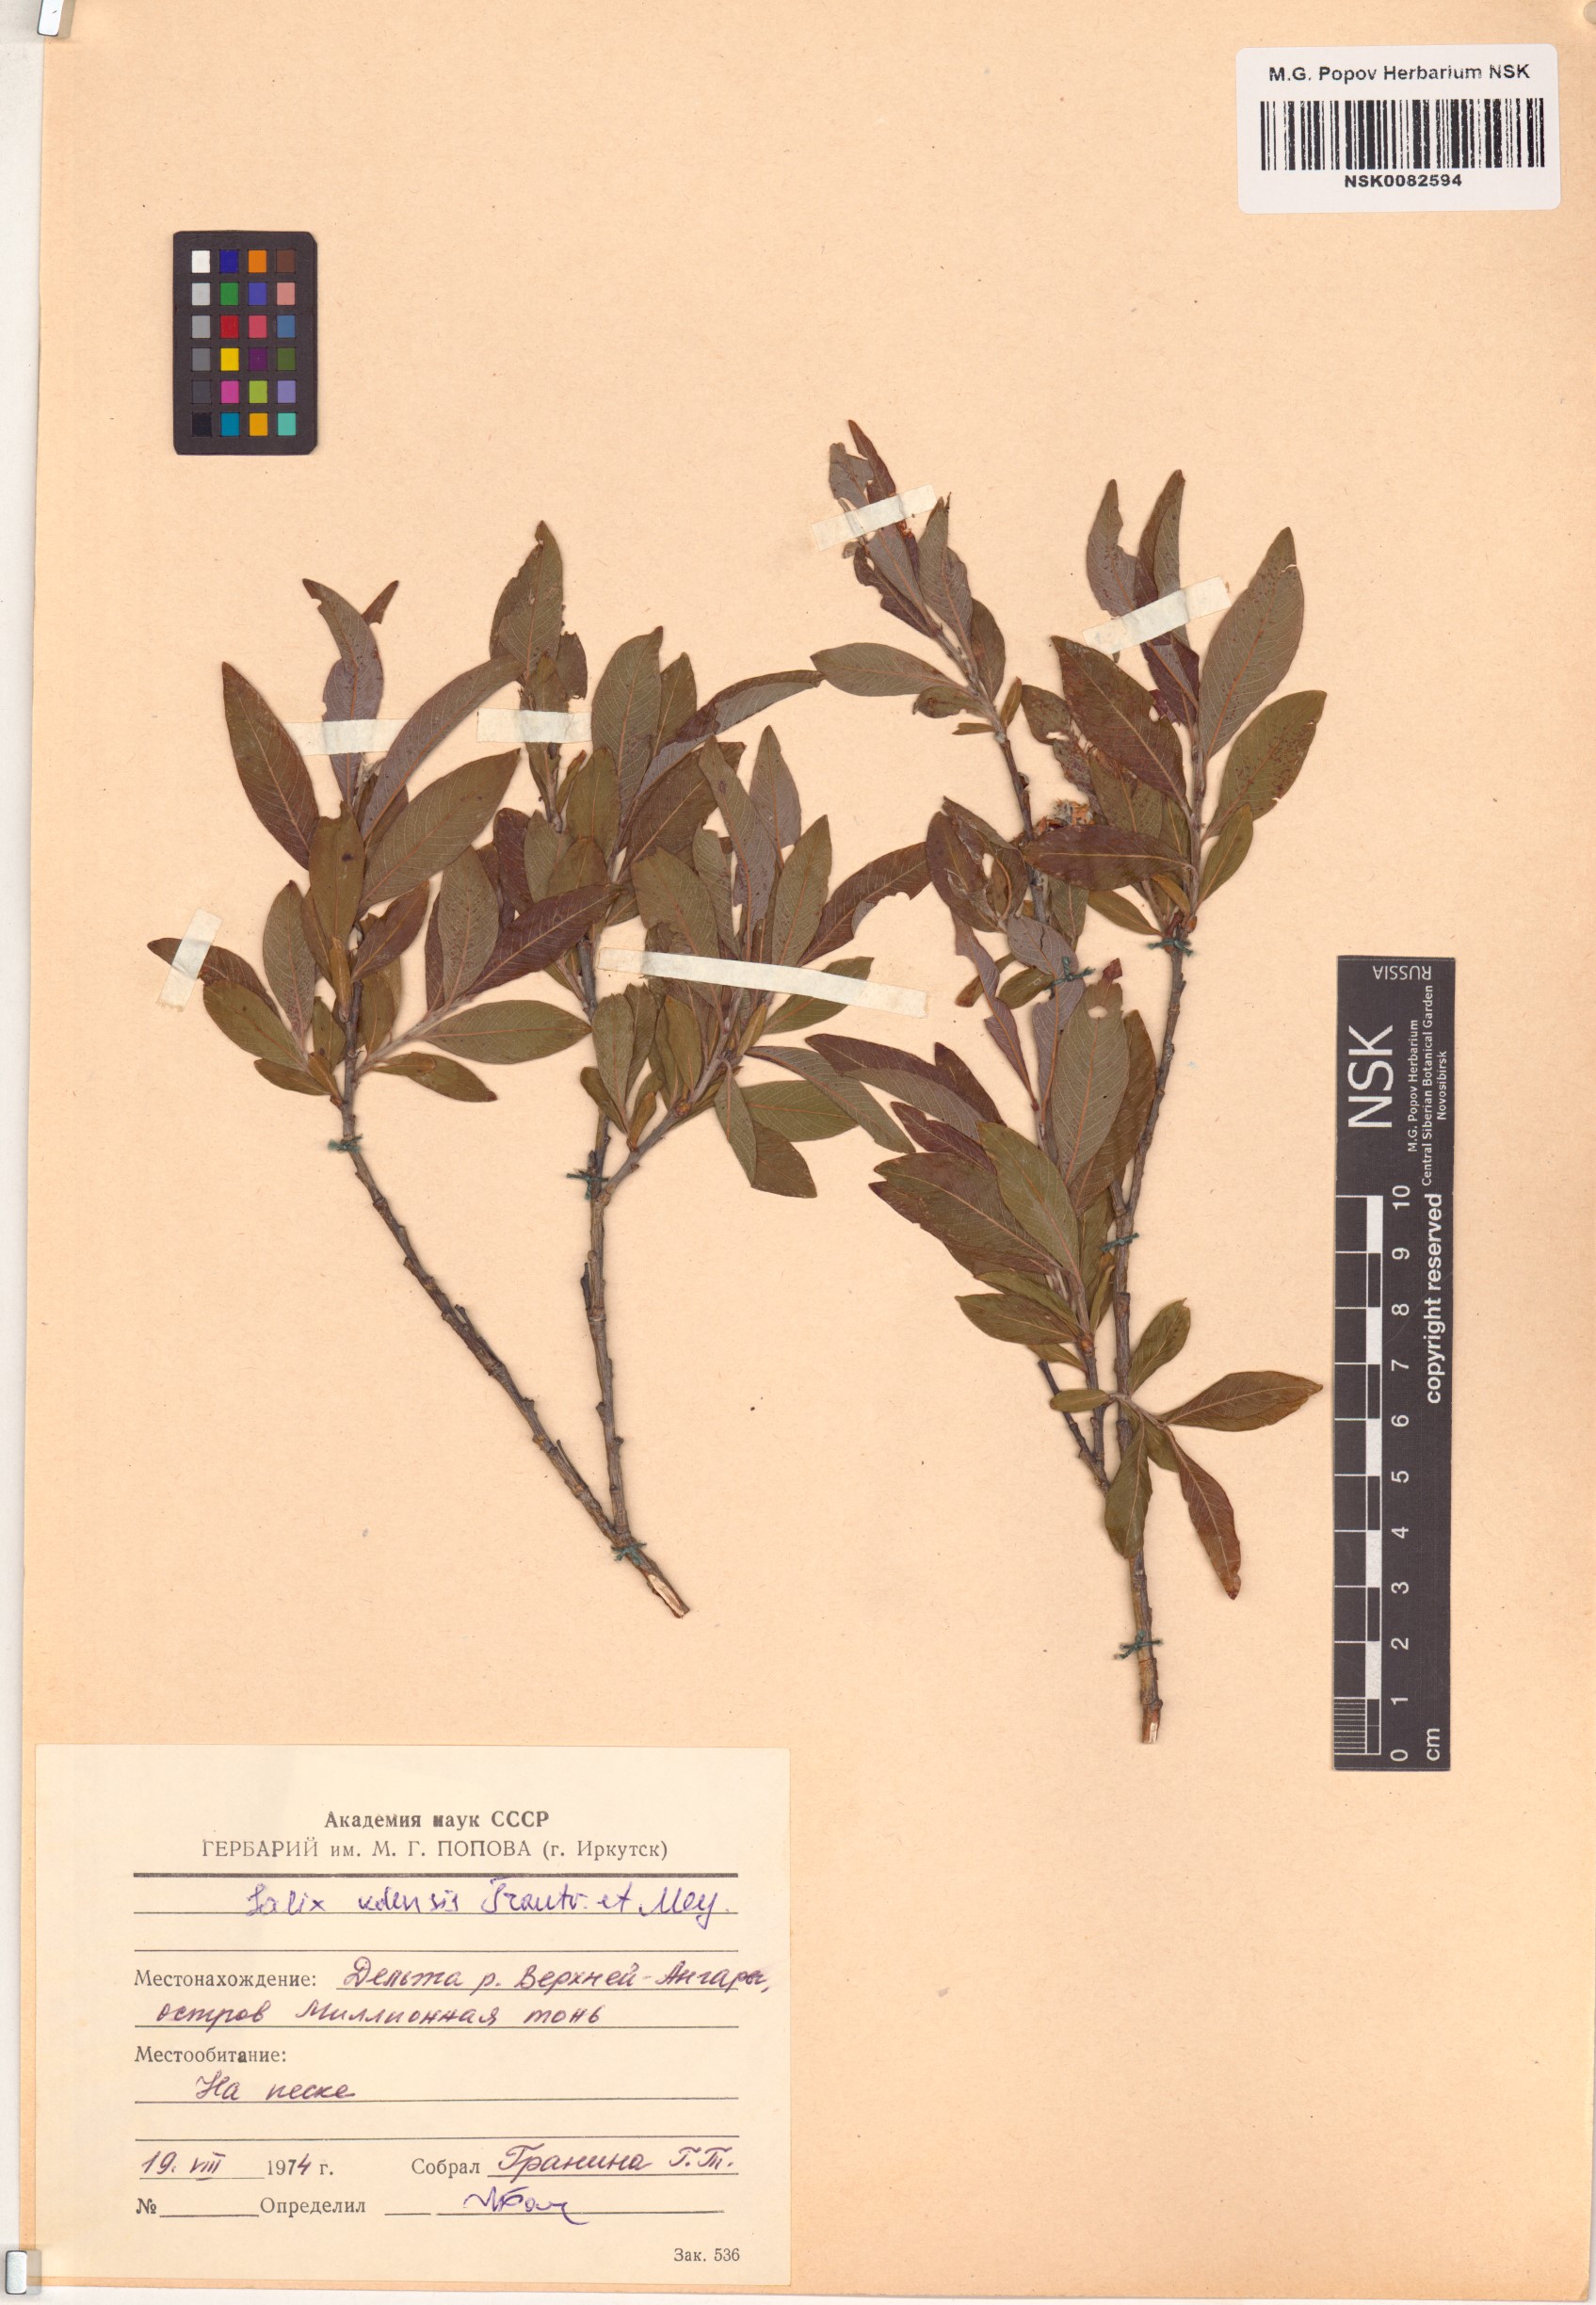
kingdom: Plantae
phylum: Tracheophyta
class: Magnoliopsida
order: Malpighiales
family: Salicaceae
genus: Salix
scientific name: Salix udensis
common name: Sachalin willow
